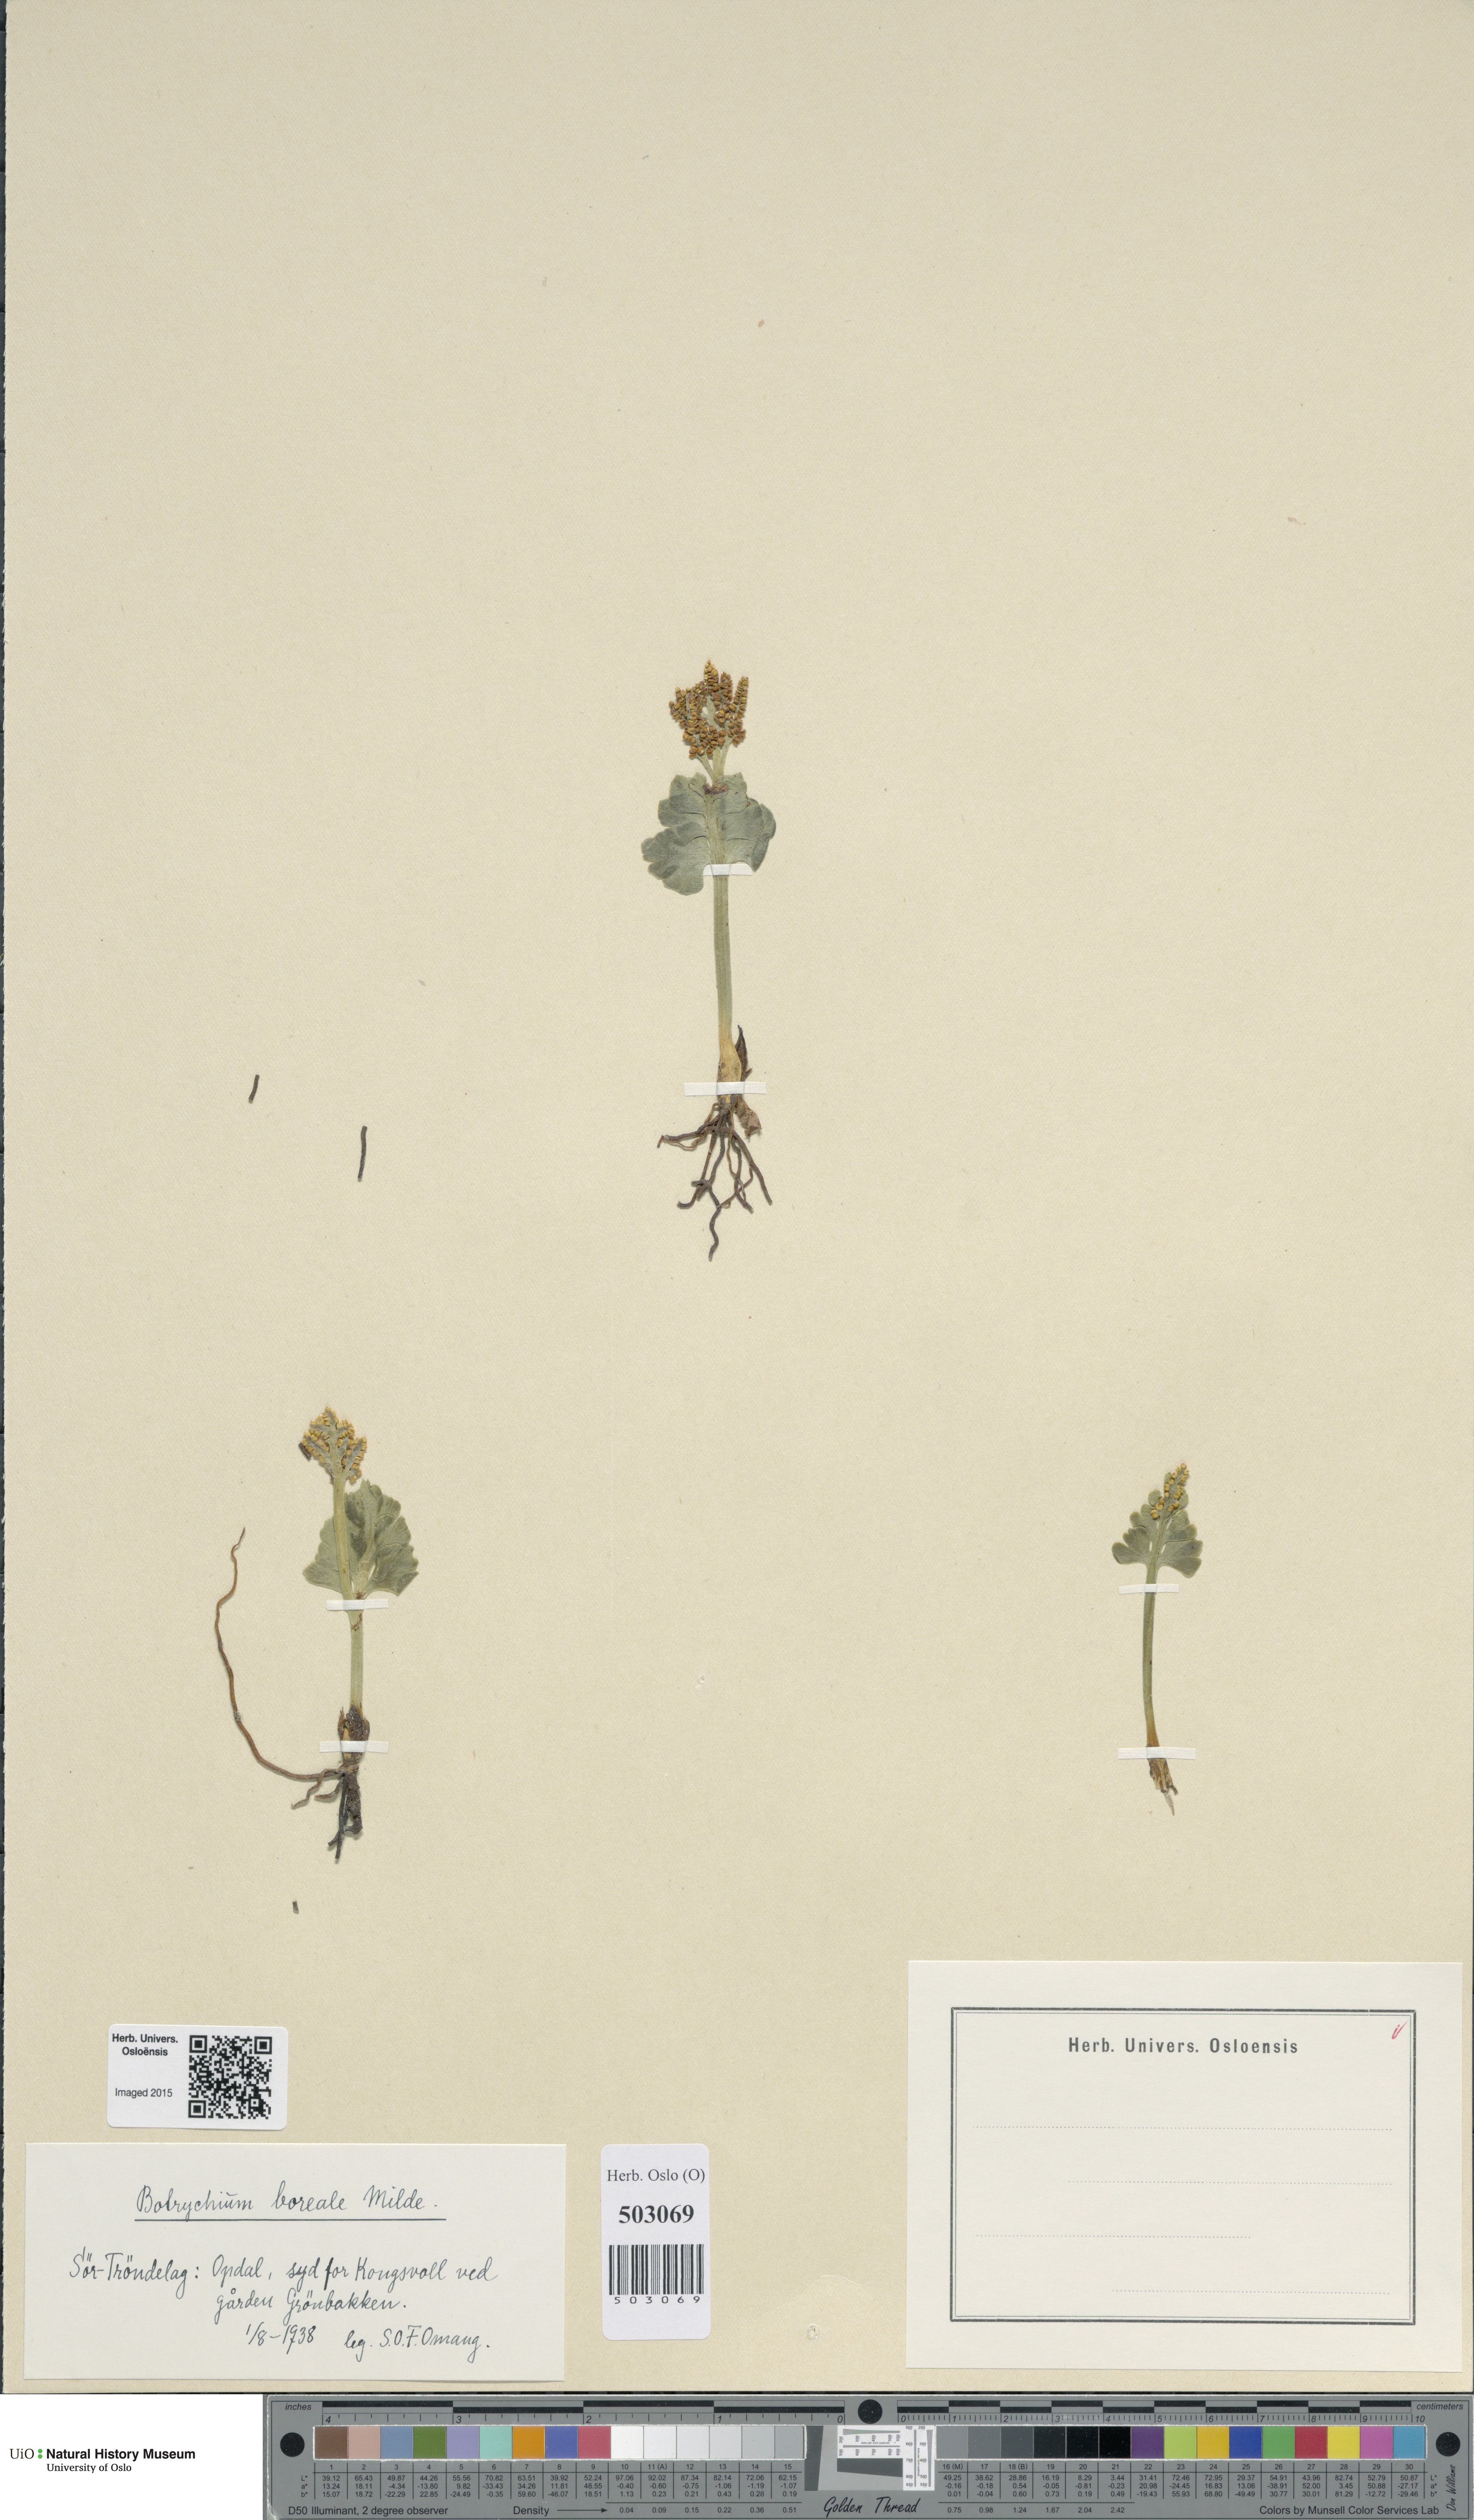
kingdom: Plantae
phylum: Tracheophyta
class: Polypodiopsida
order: Ophioglossales
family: Ophioglossaceae
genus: Botrychium
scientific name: Botrychium boreale
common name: Boreal moonwort
